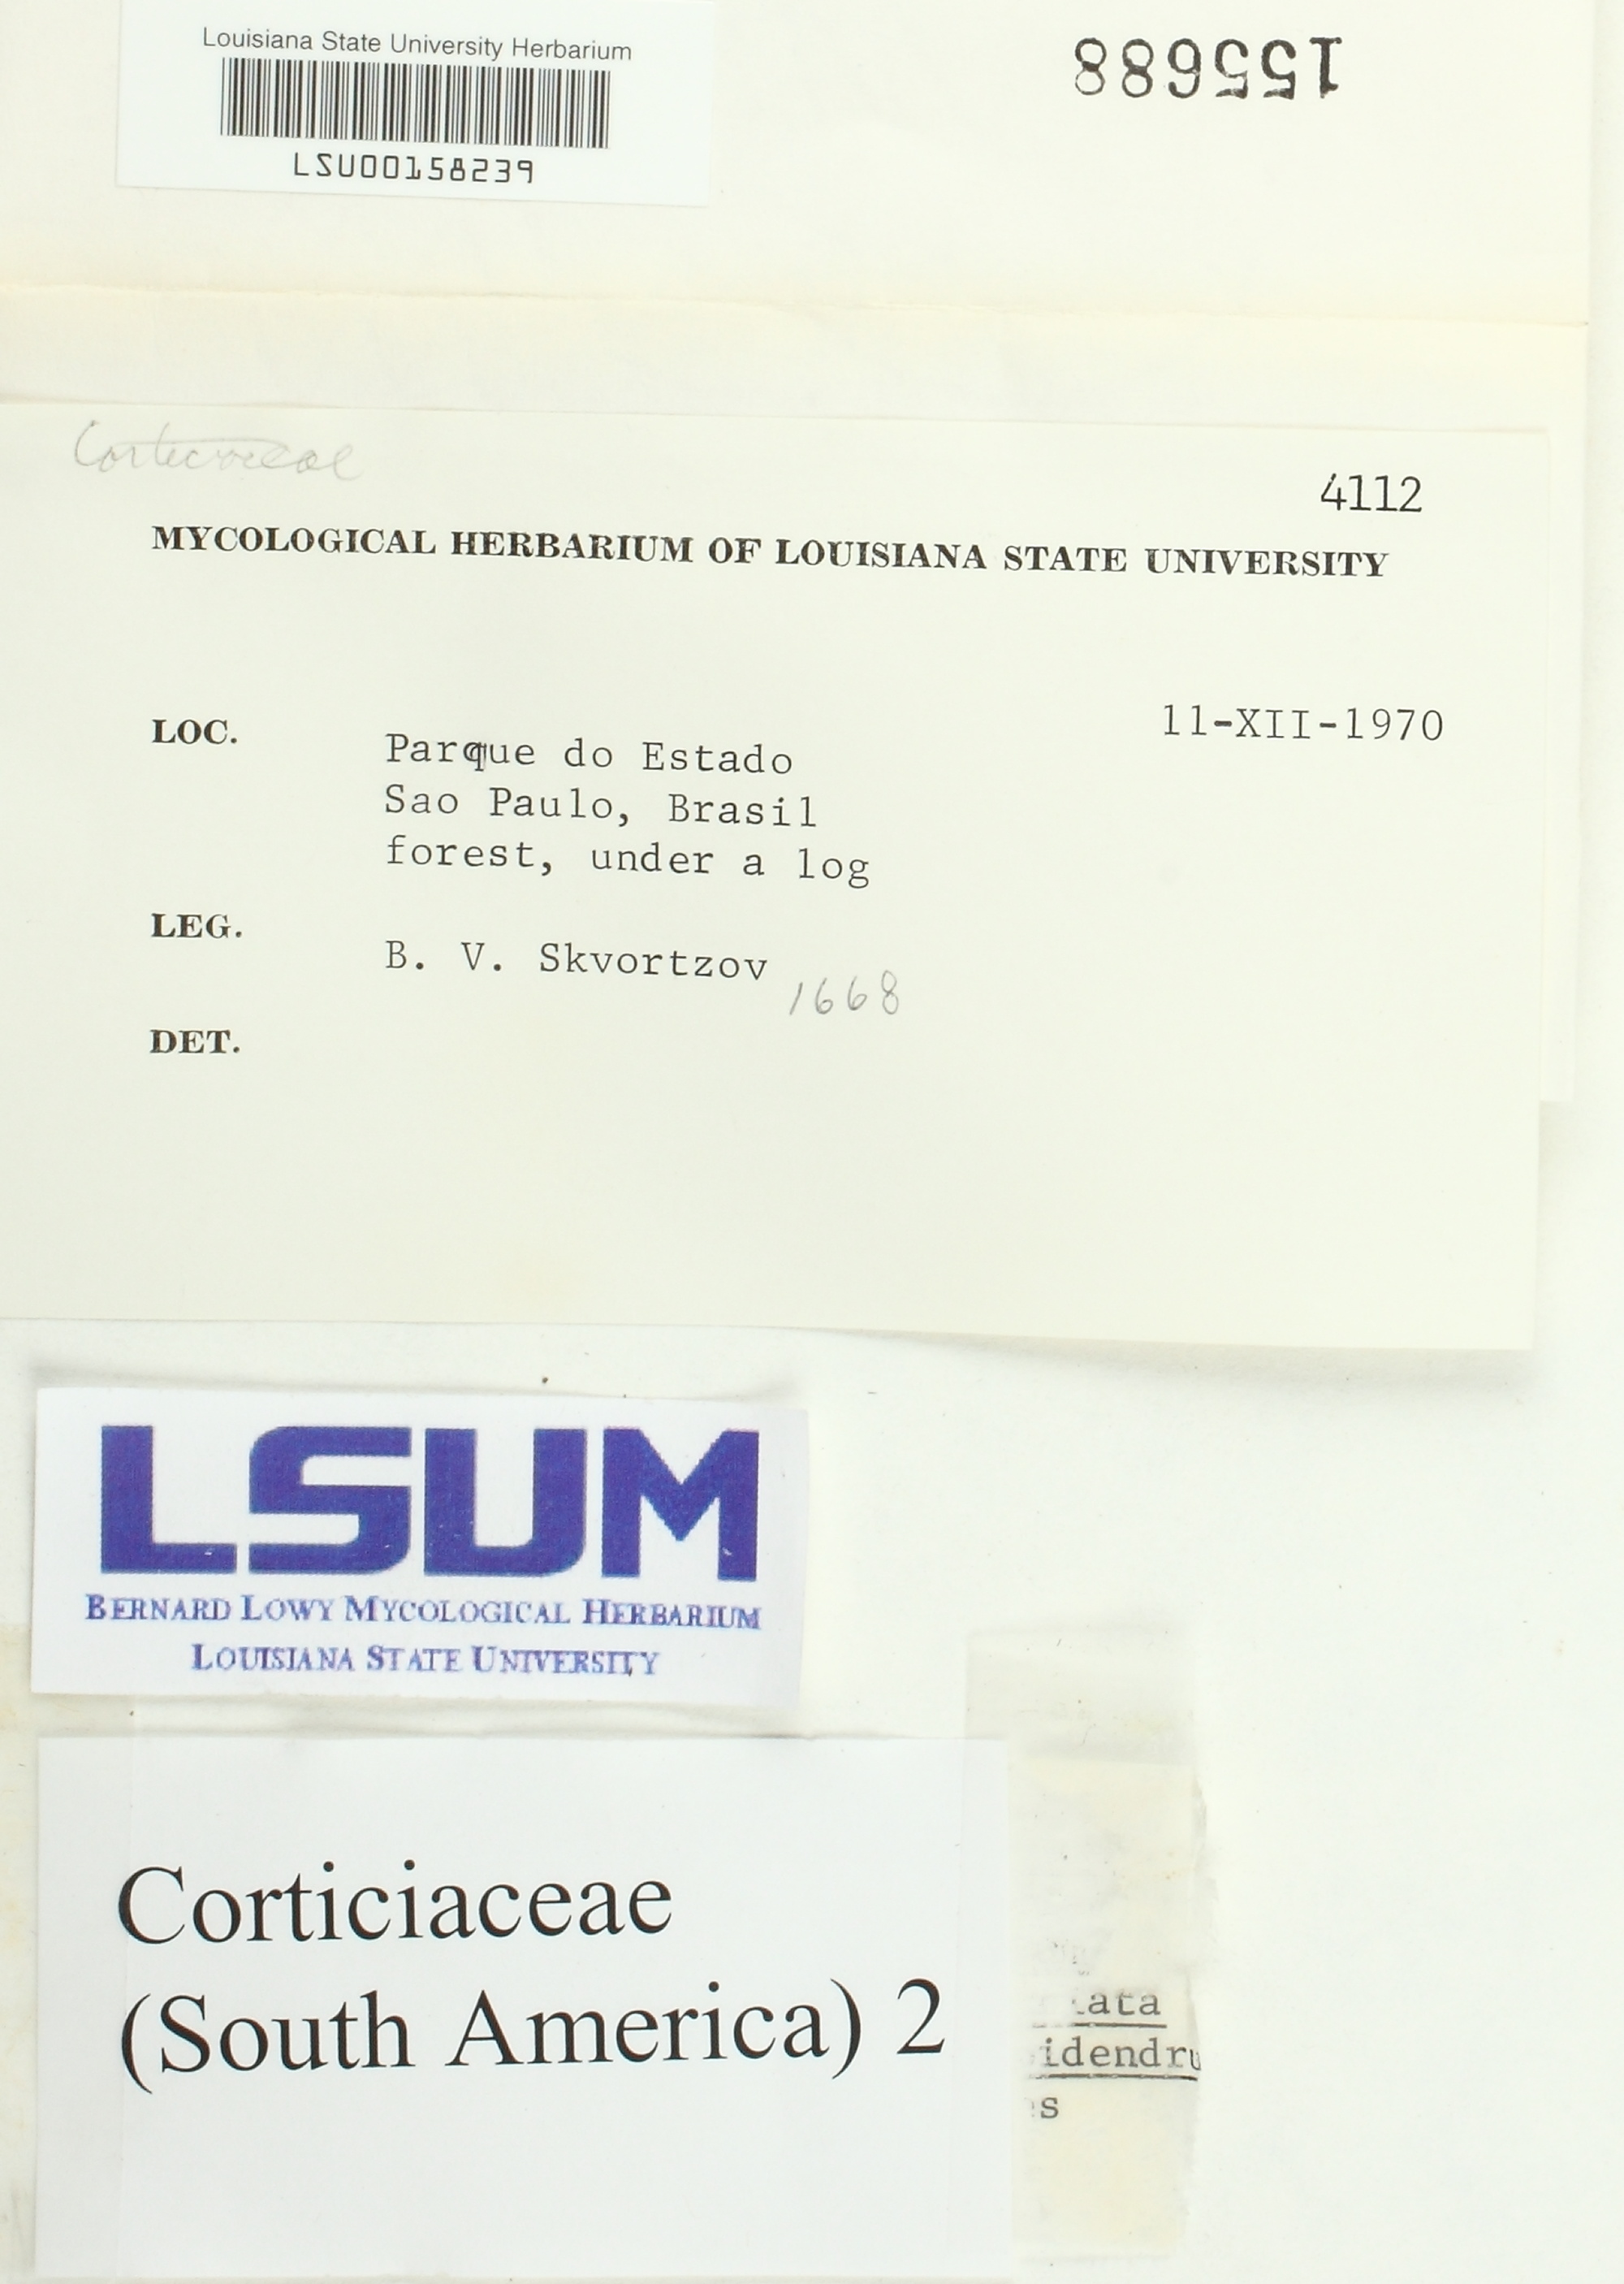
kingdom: Fungi
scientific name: Fungi
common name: Fungi
